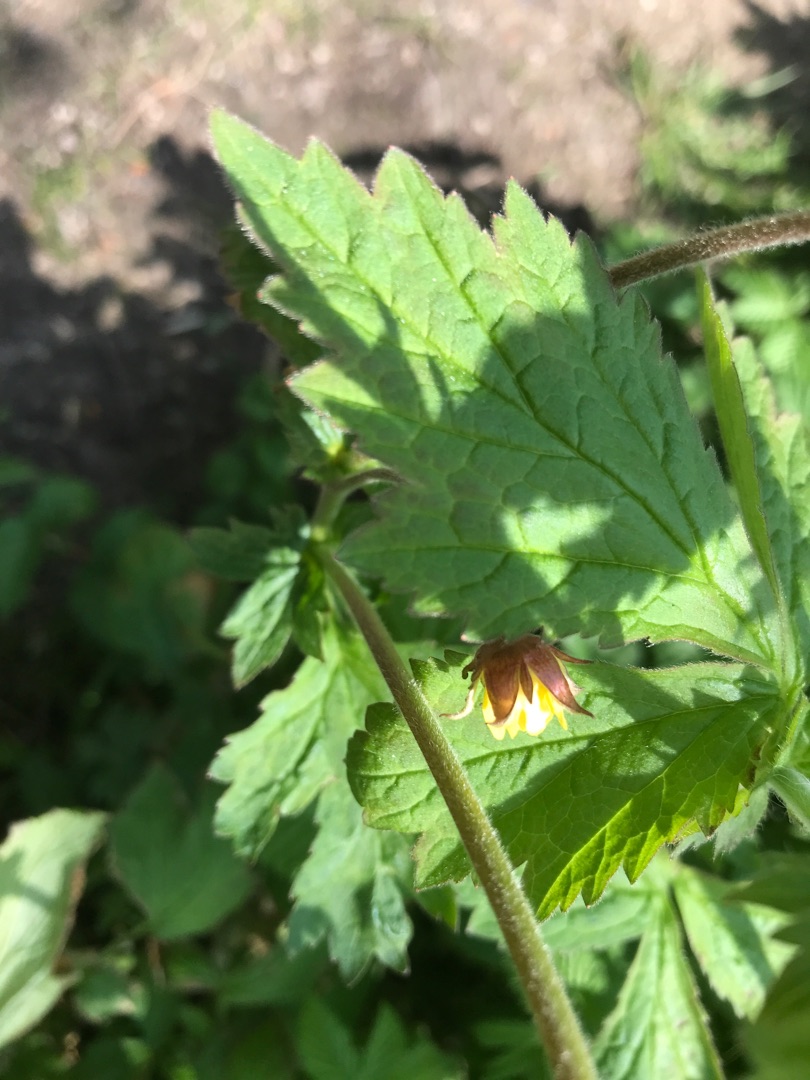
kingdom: Plantae
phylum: Tracheophyta
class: Magnoliopsida
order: Rosales
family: Rosaceae
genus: Geum
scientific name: Geum
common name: Høj nellikerod
